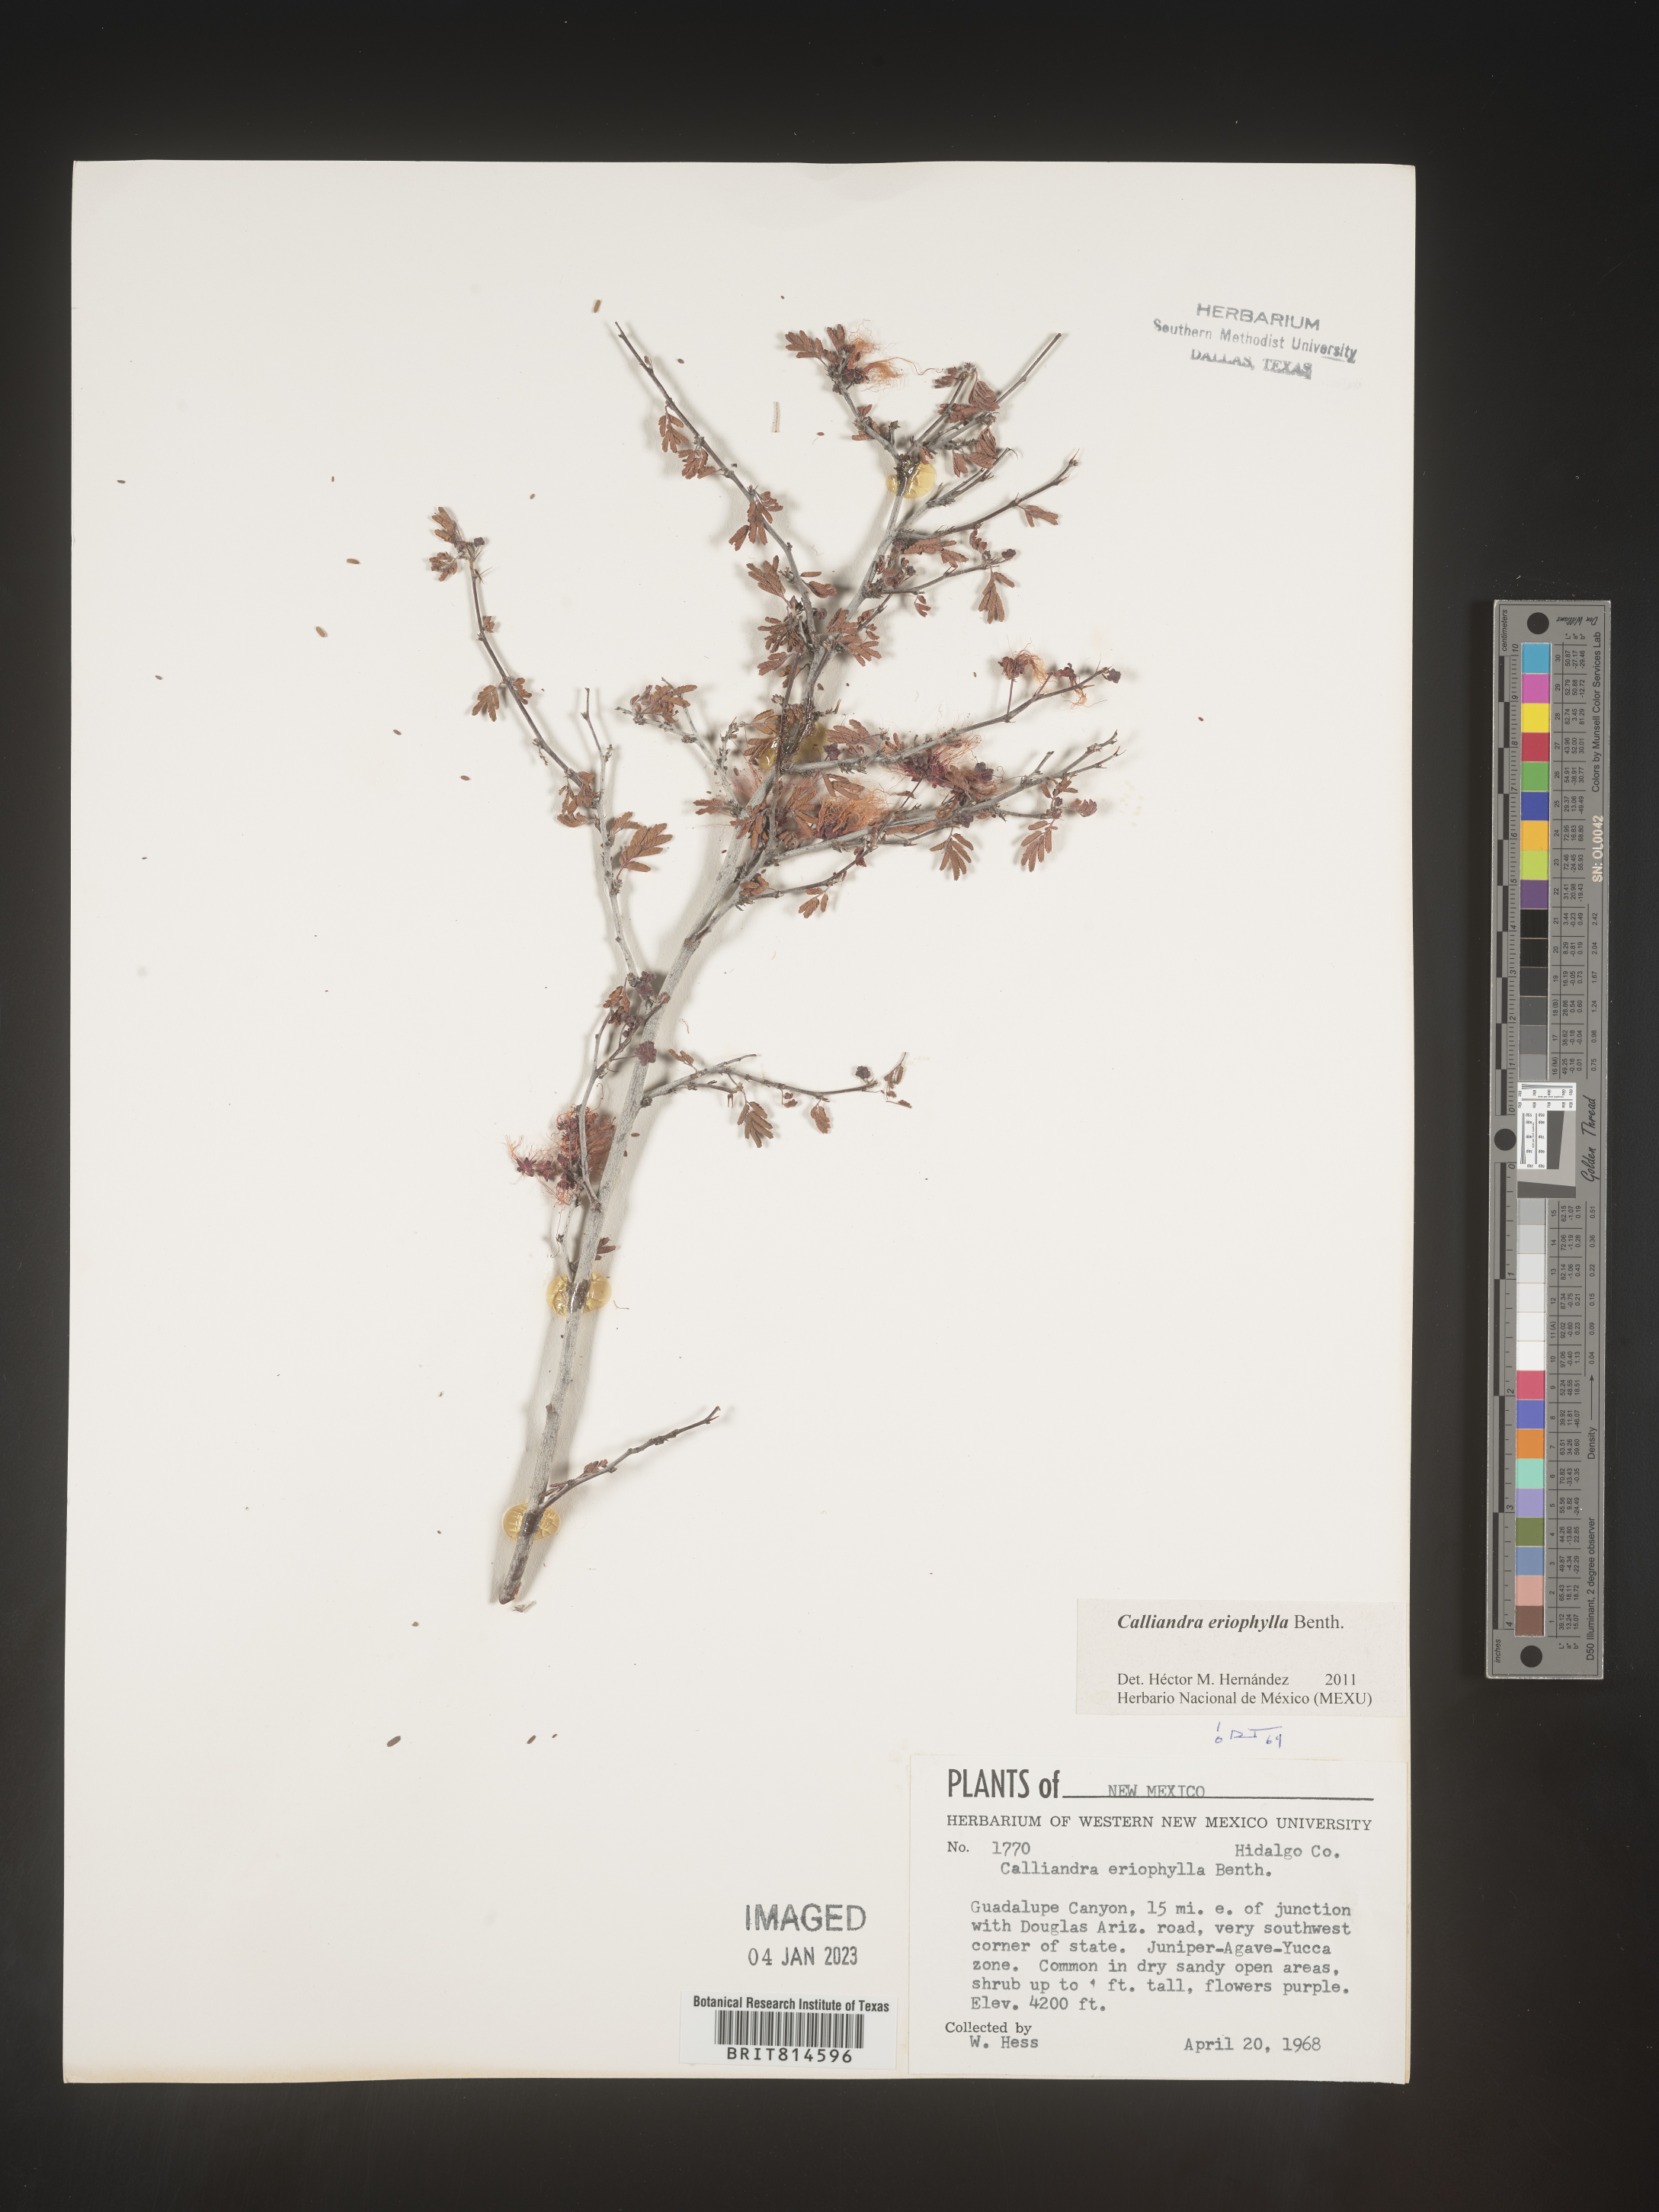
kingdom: Plantae
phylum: Tracheophyta
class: Magnoliopsida
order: Fabales
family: Fabaceae
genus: Calliandra
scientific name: Calliandra
